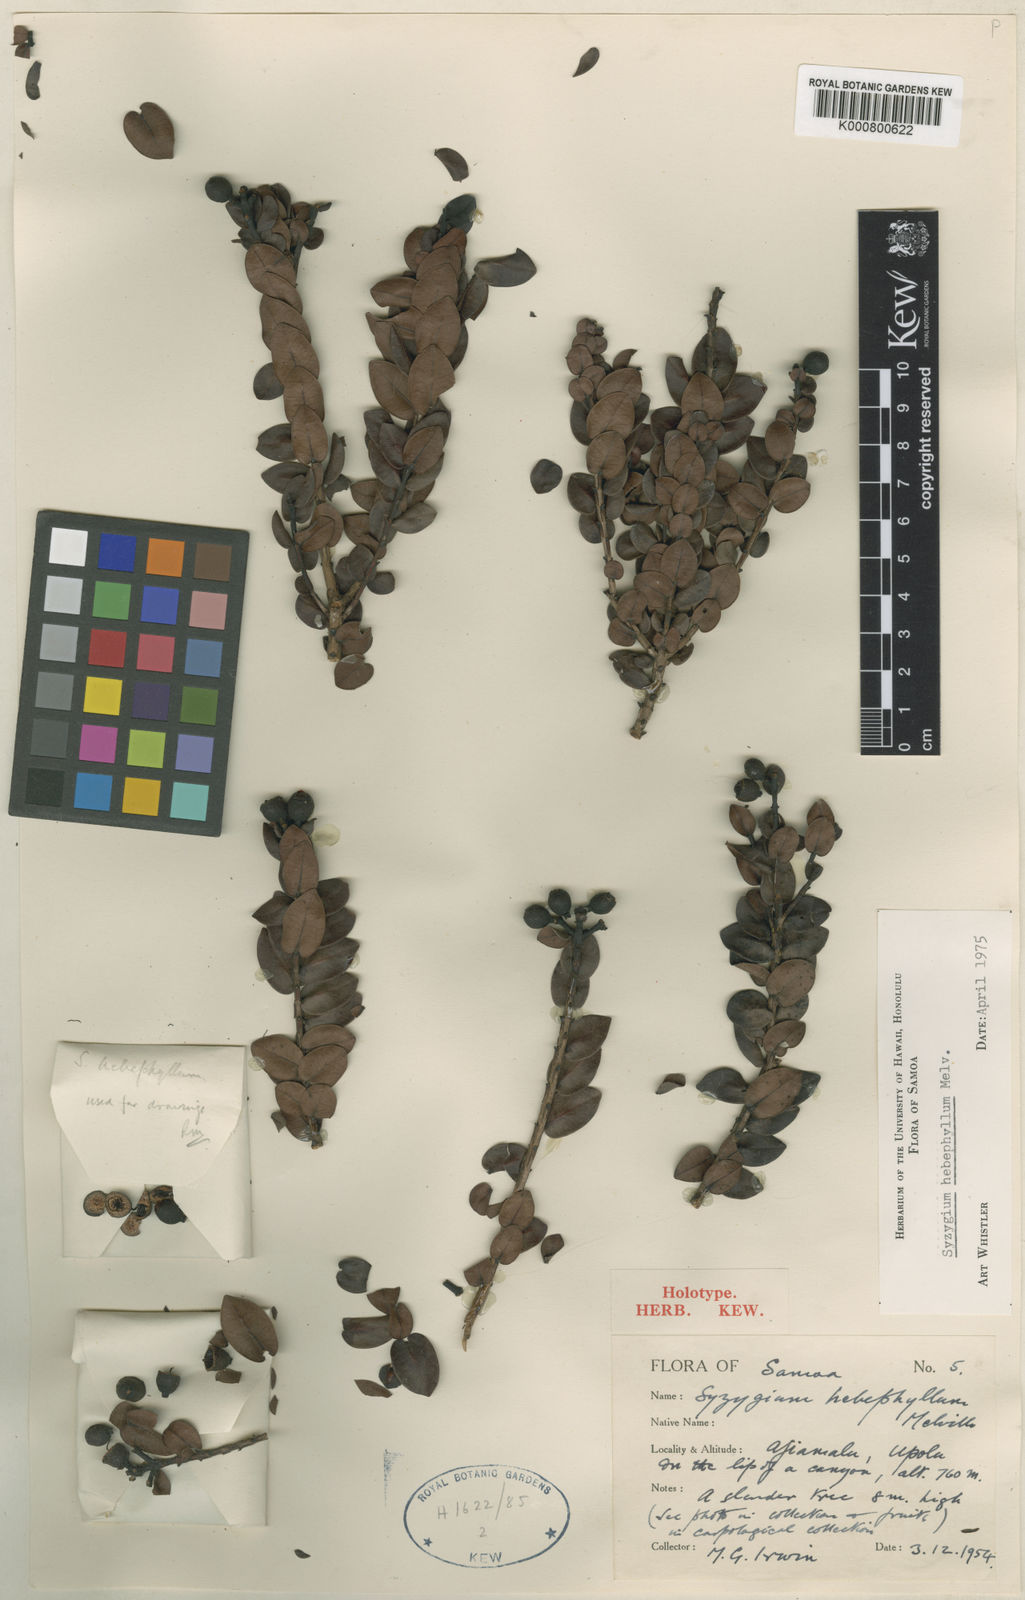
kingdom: Plantae
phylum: Tracheophyta
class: Magnoliopsida
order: Myrtales
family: Myrtaceae
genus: Syzygium
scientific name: Syzygium hebephyllum
